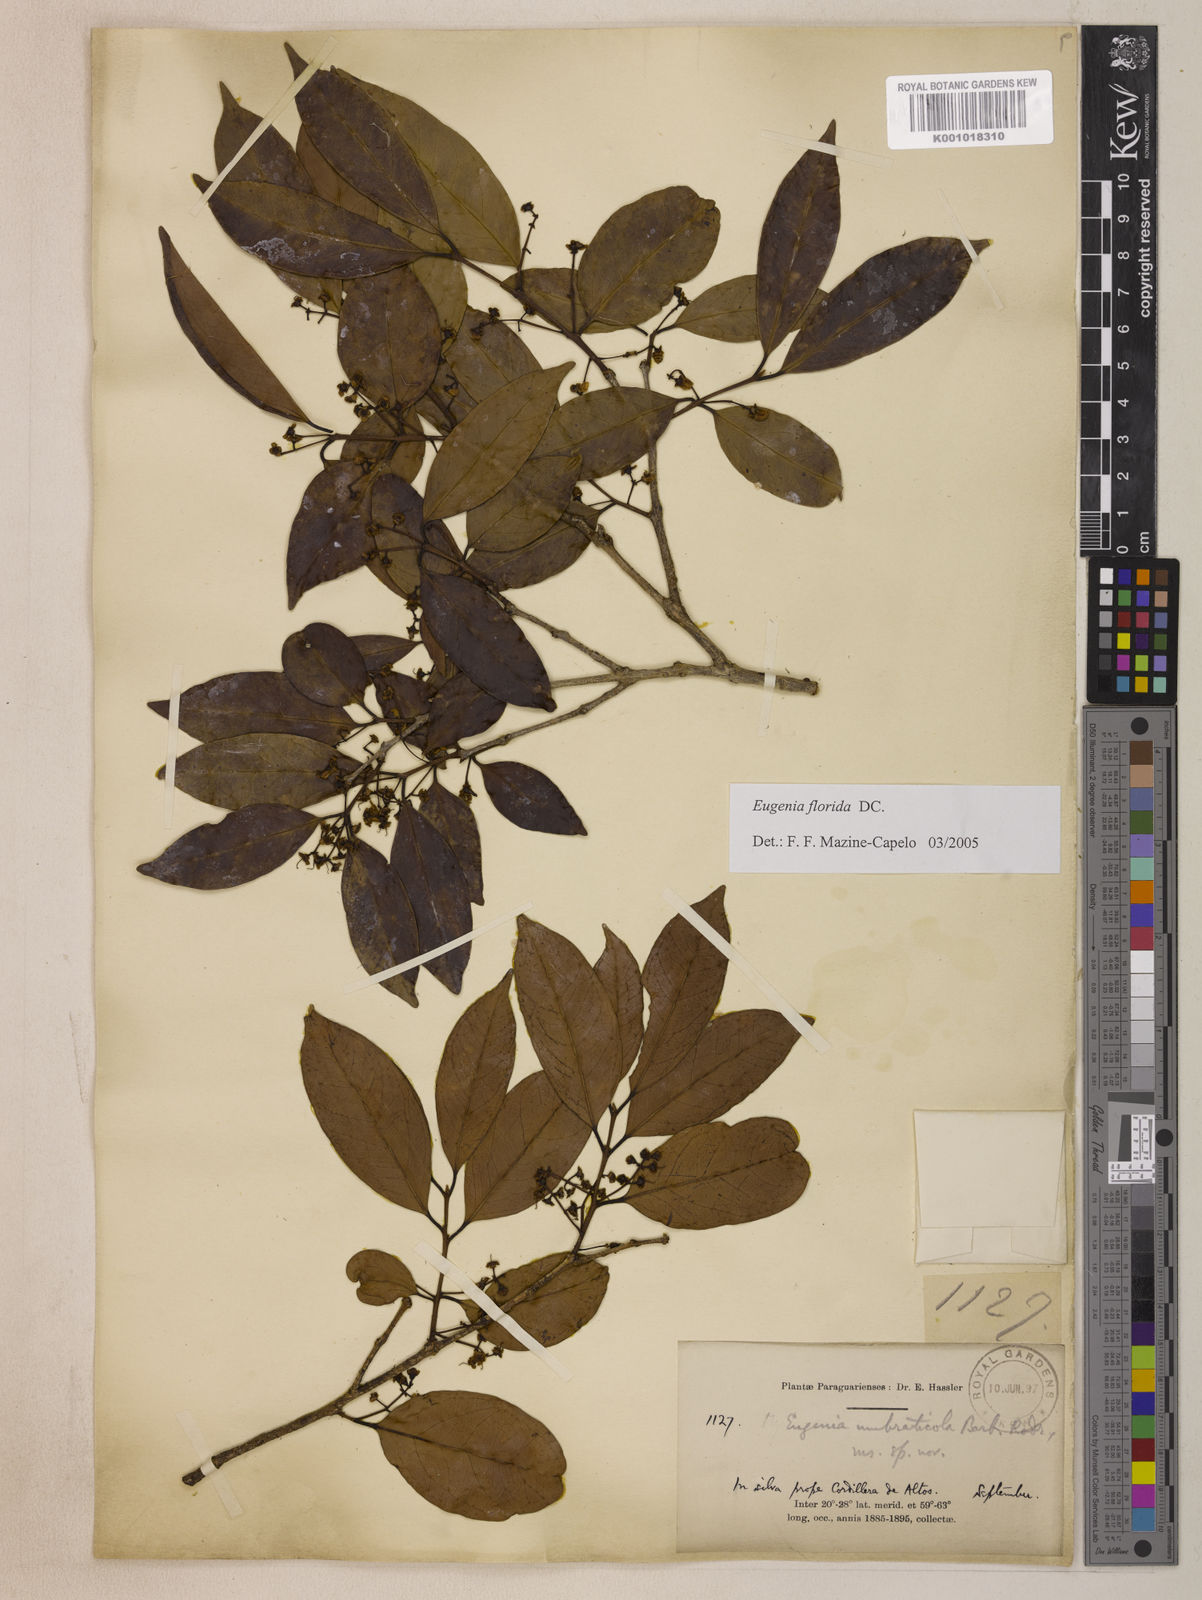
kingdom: Plantae
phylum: Tracheophyta
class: Magnoliopsida
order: Myrtales
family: Myrtaceae
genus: Eugenia
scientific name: Eugenia florida
